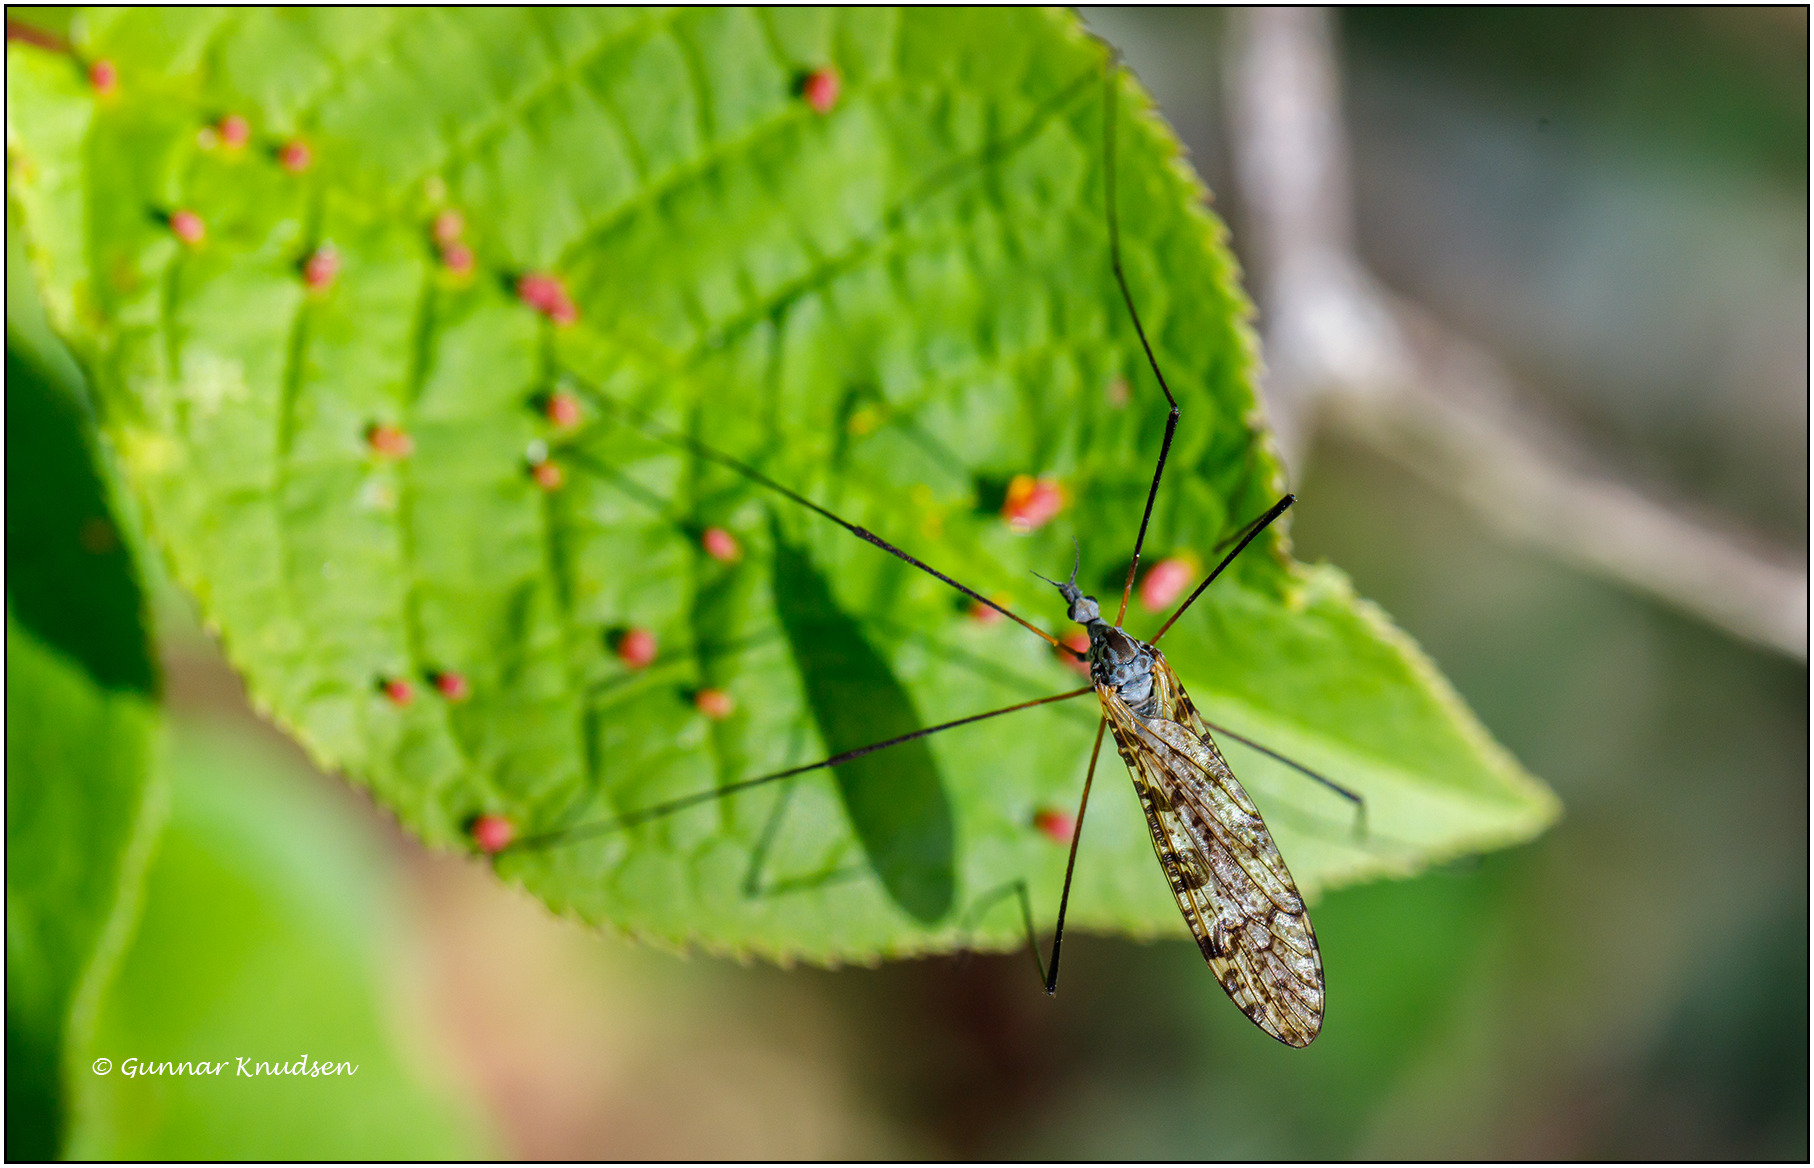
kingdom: Animalia
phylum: Arthropoda
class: Insecta
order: Diptera
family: Limoniidae
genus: Limnophila
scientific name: Limnophila schranki
